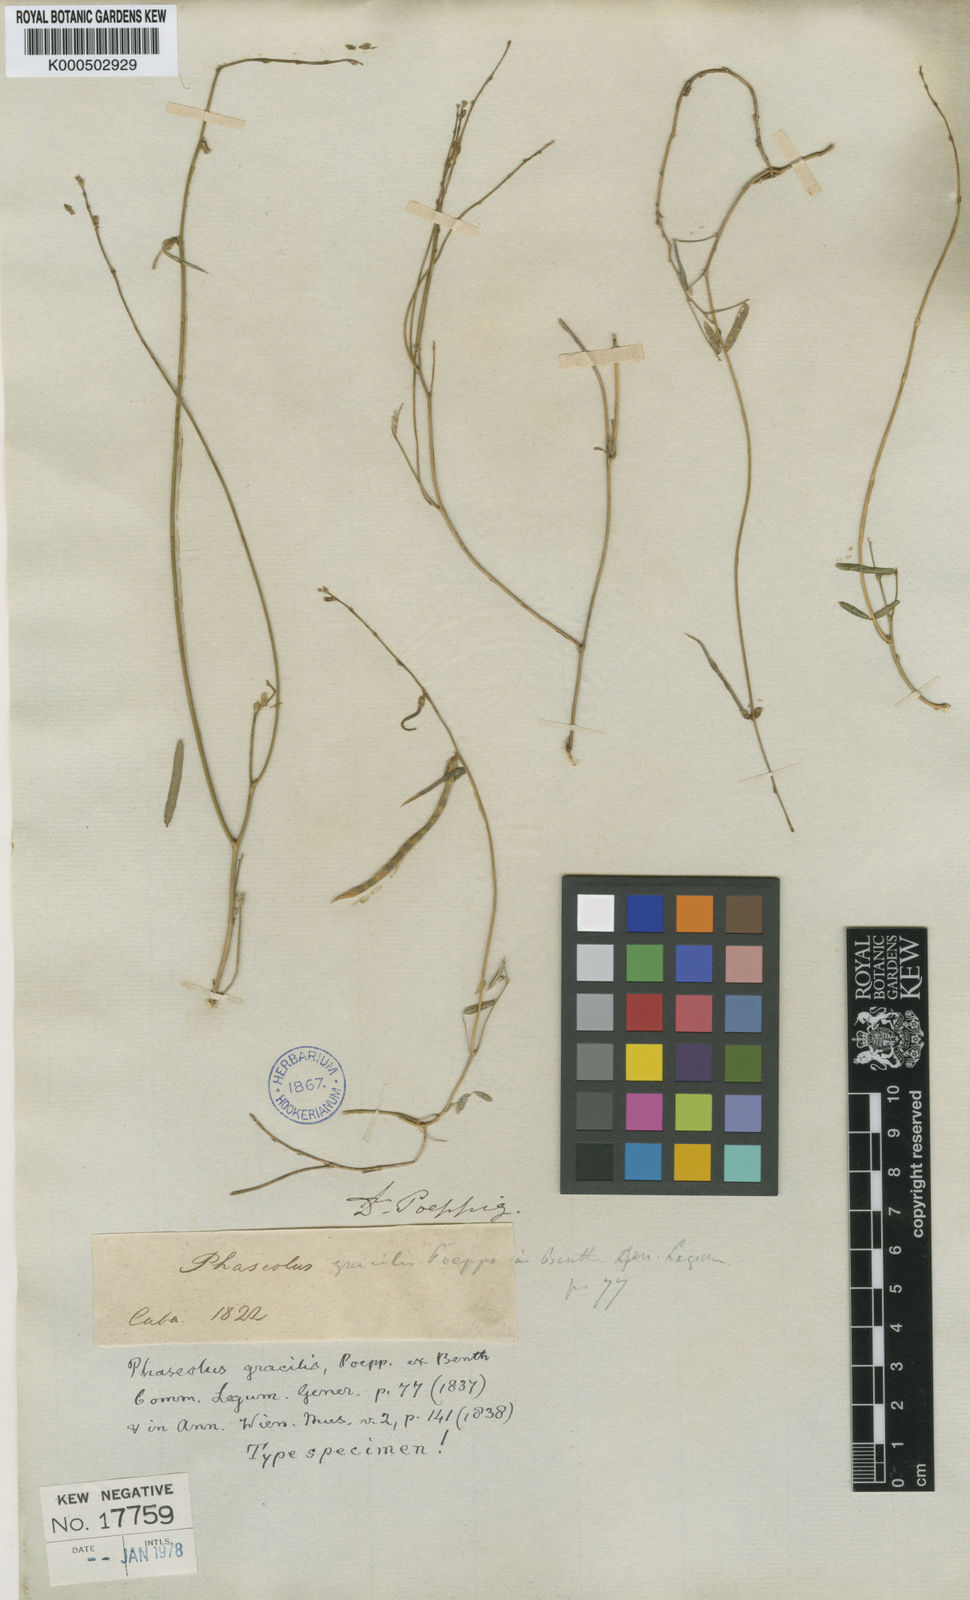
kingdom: Plantae
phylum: Tracheophyta
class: Magnoliopsida
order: Fabales
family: Fabaceae
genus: Macroptilium
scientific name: Macroptilium gracile
